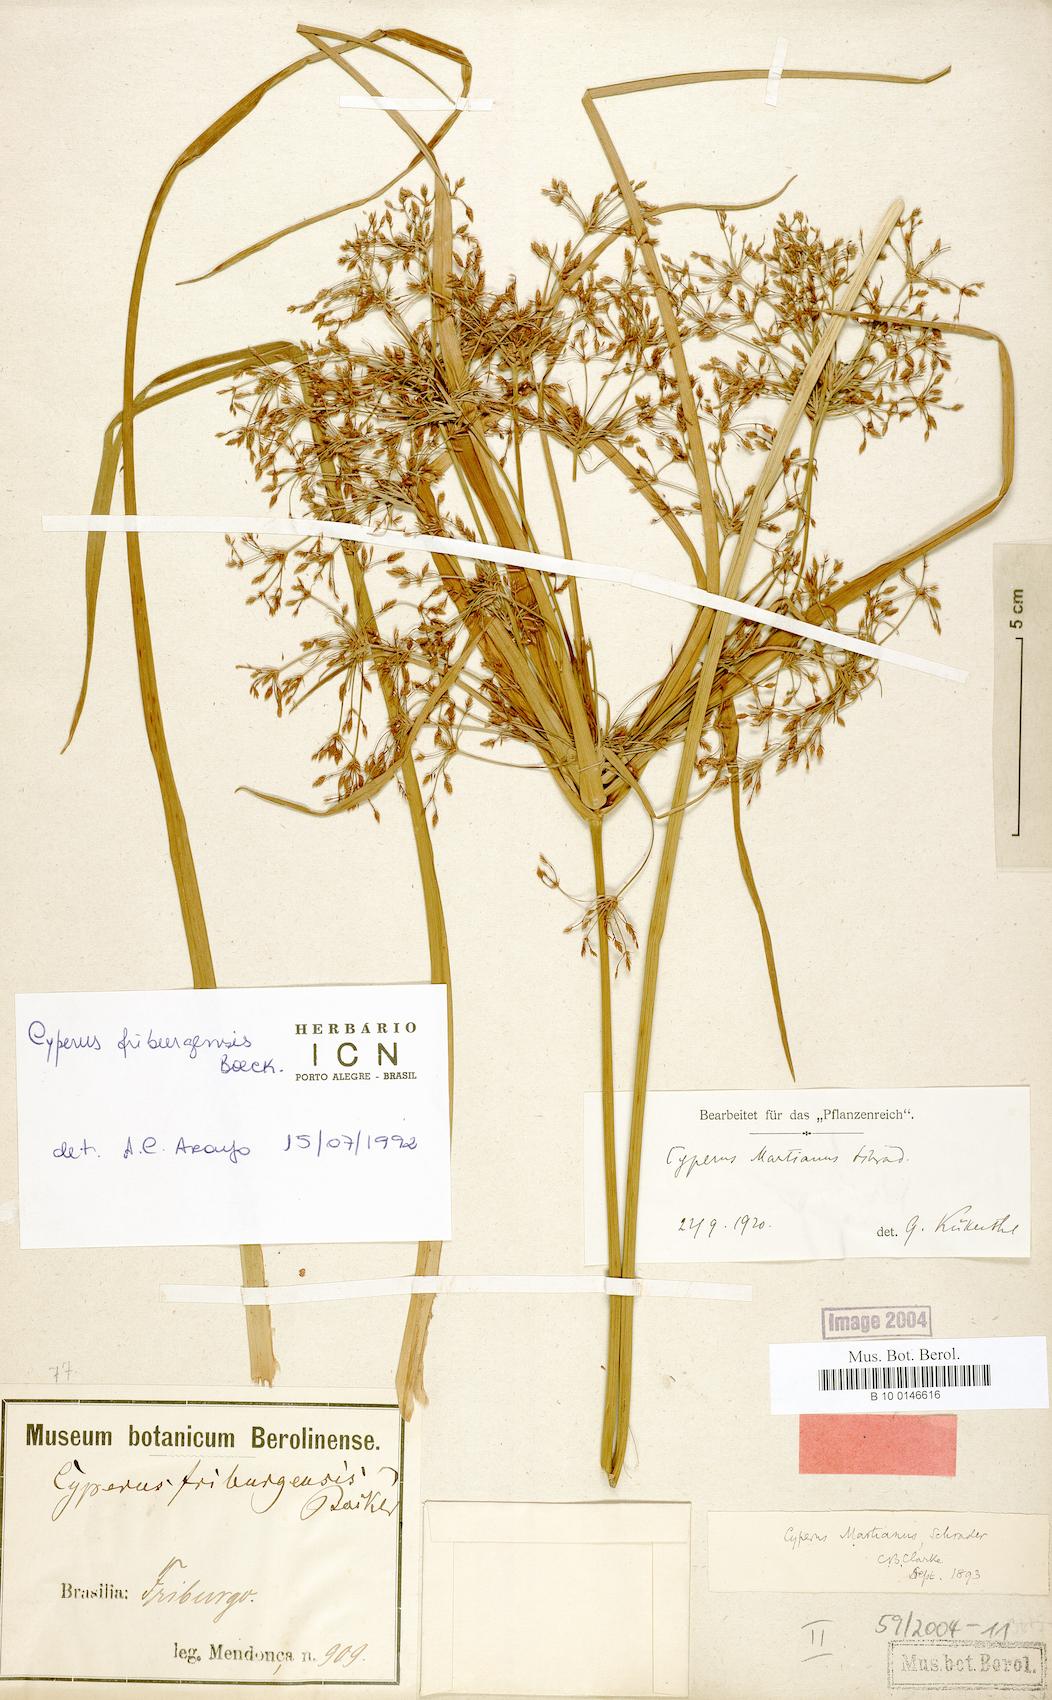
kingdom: Plantae
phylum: Tracheophyta
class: Liliopsida
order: Poales
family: Cyperaceae
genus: Cyperus
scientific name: Cyperus friburgensis
